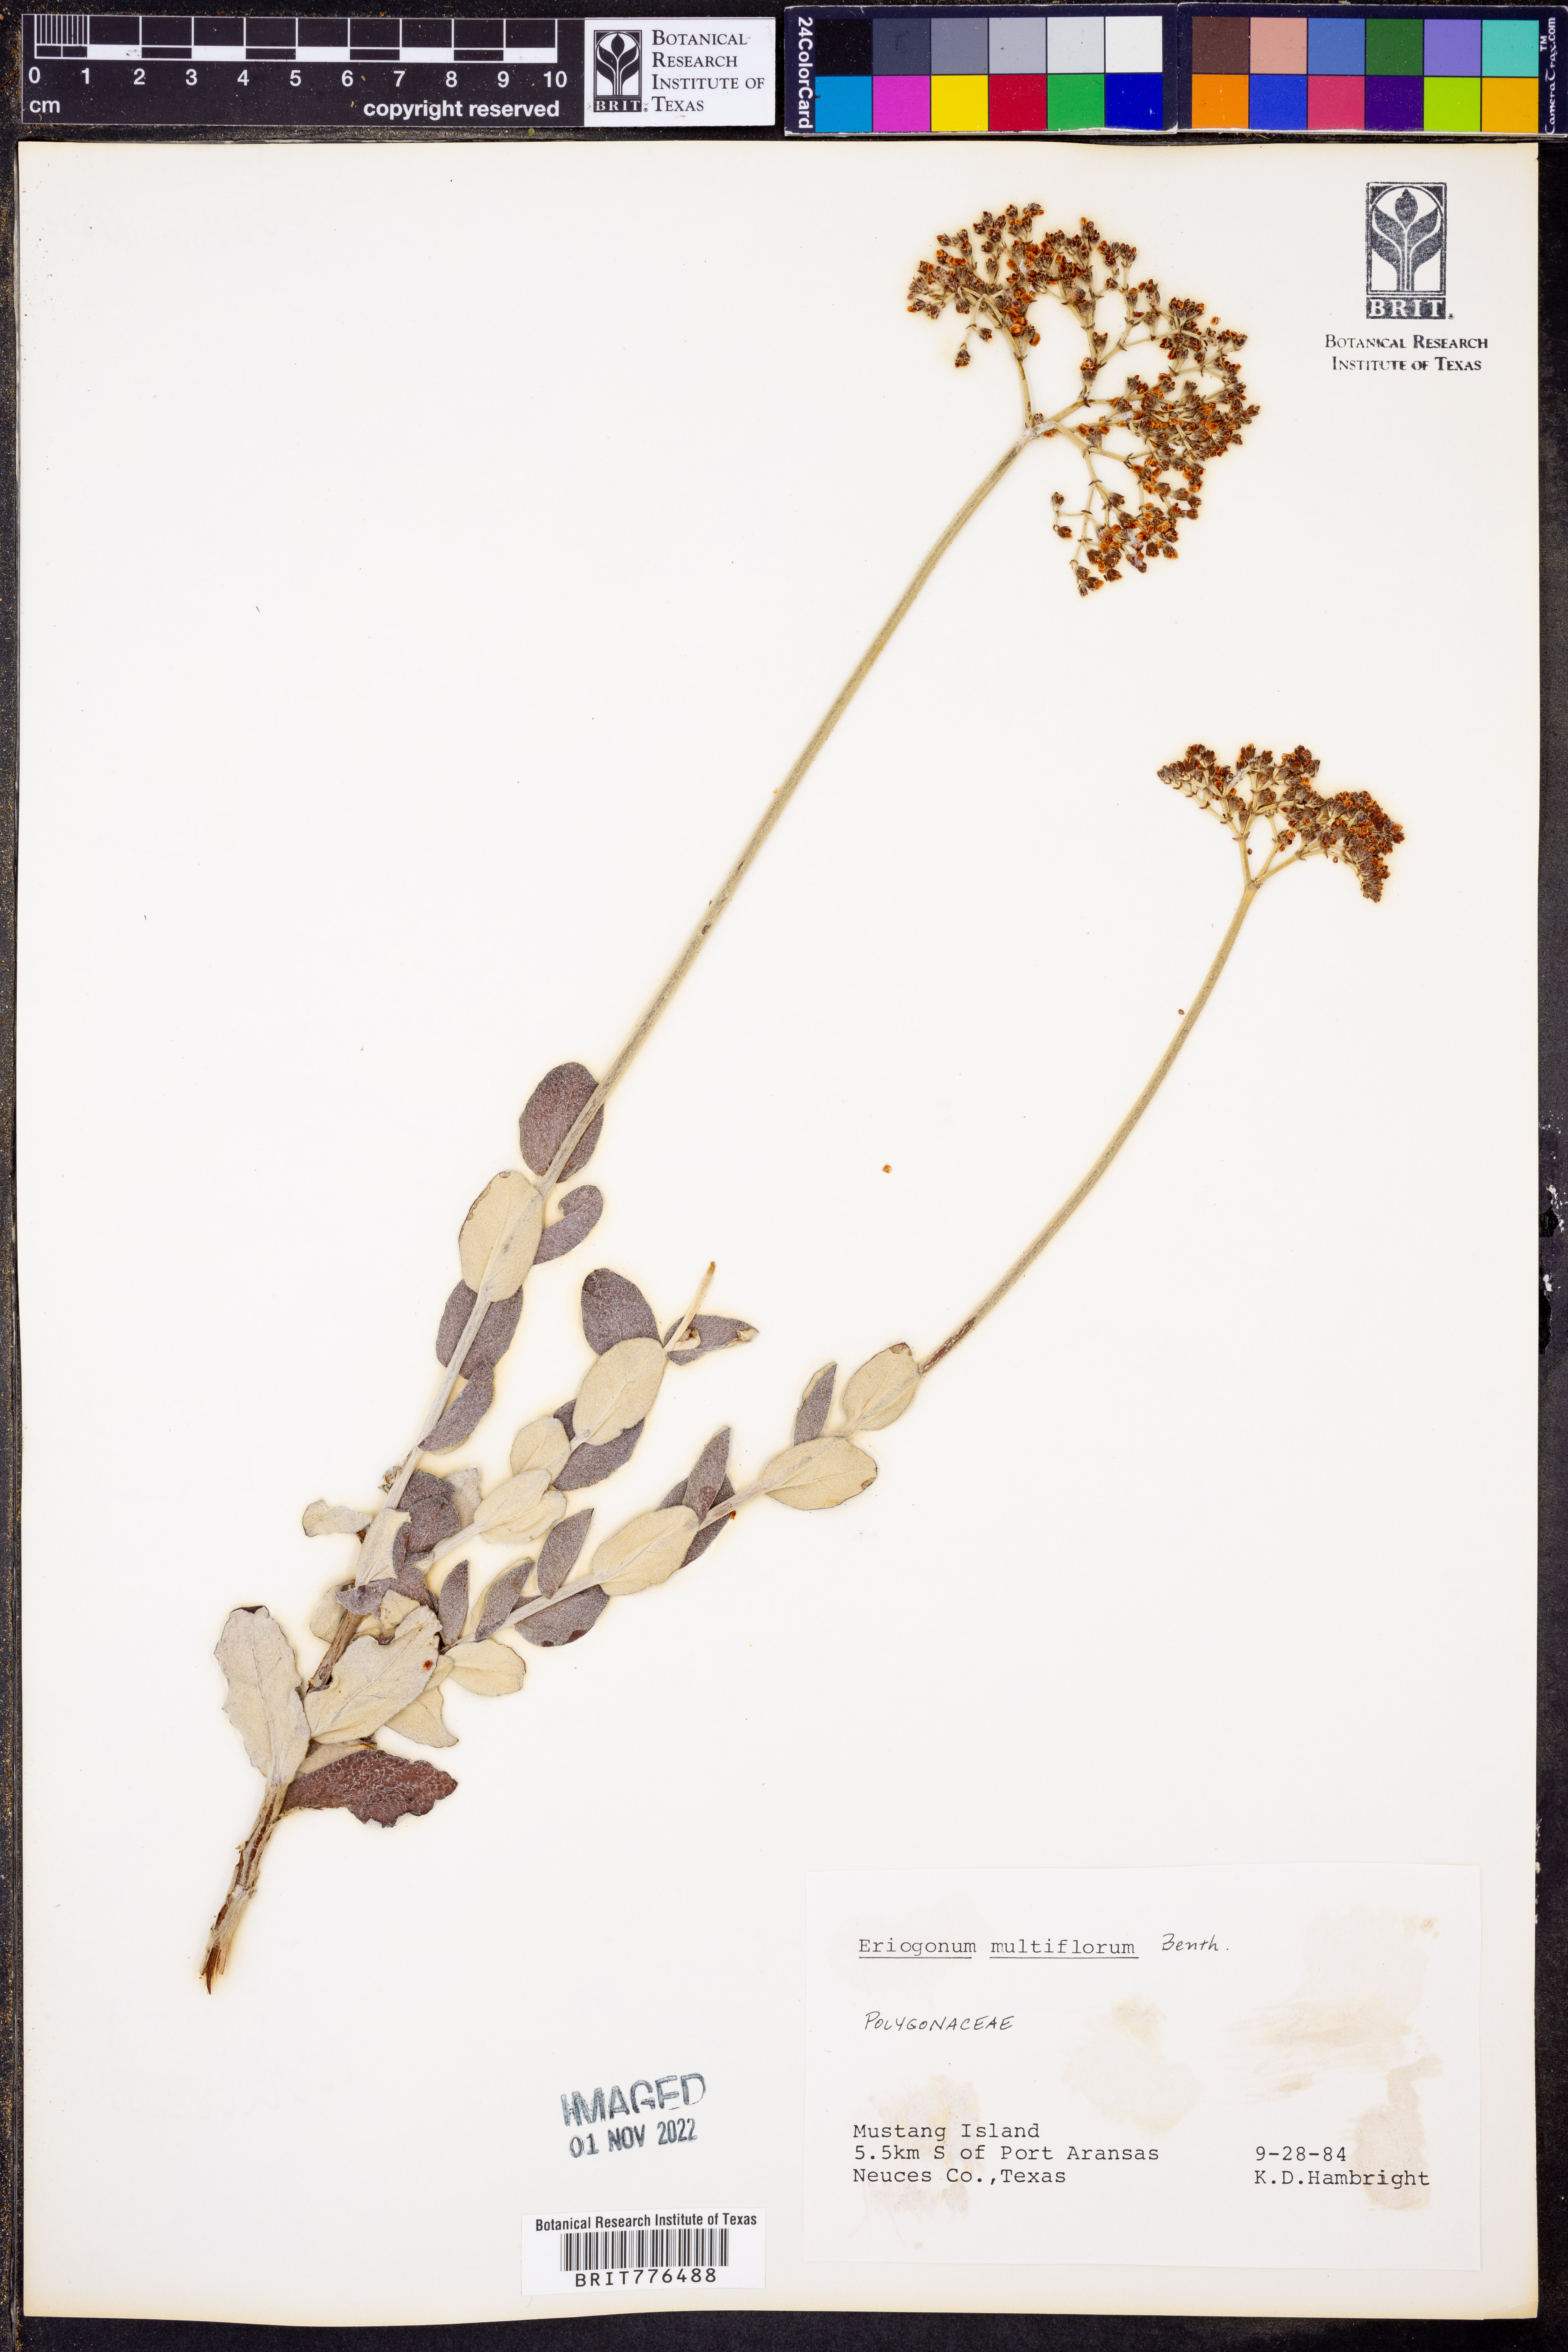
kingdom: Plantae
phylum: Tracheophyta
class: Magnoliopsida
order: Caryophyllales
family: Polygonaceae
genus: Eriogonum
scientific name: Eriogonum multiflorum
